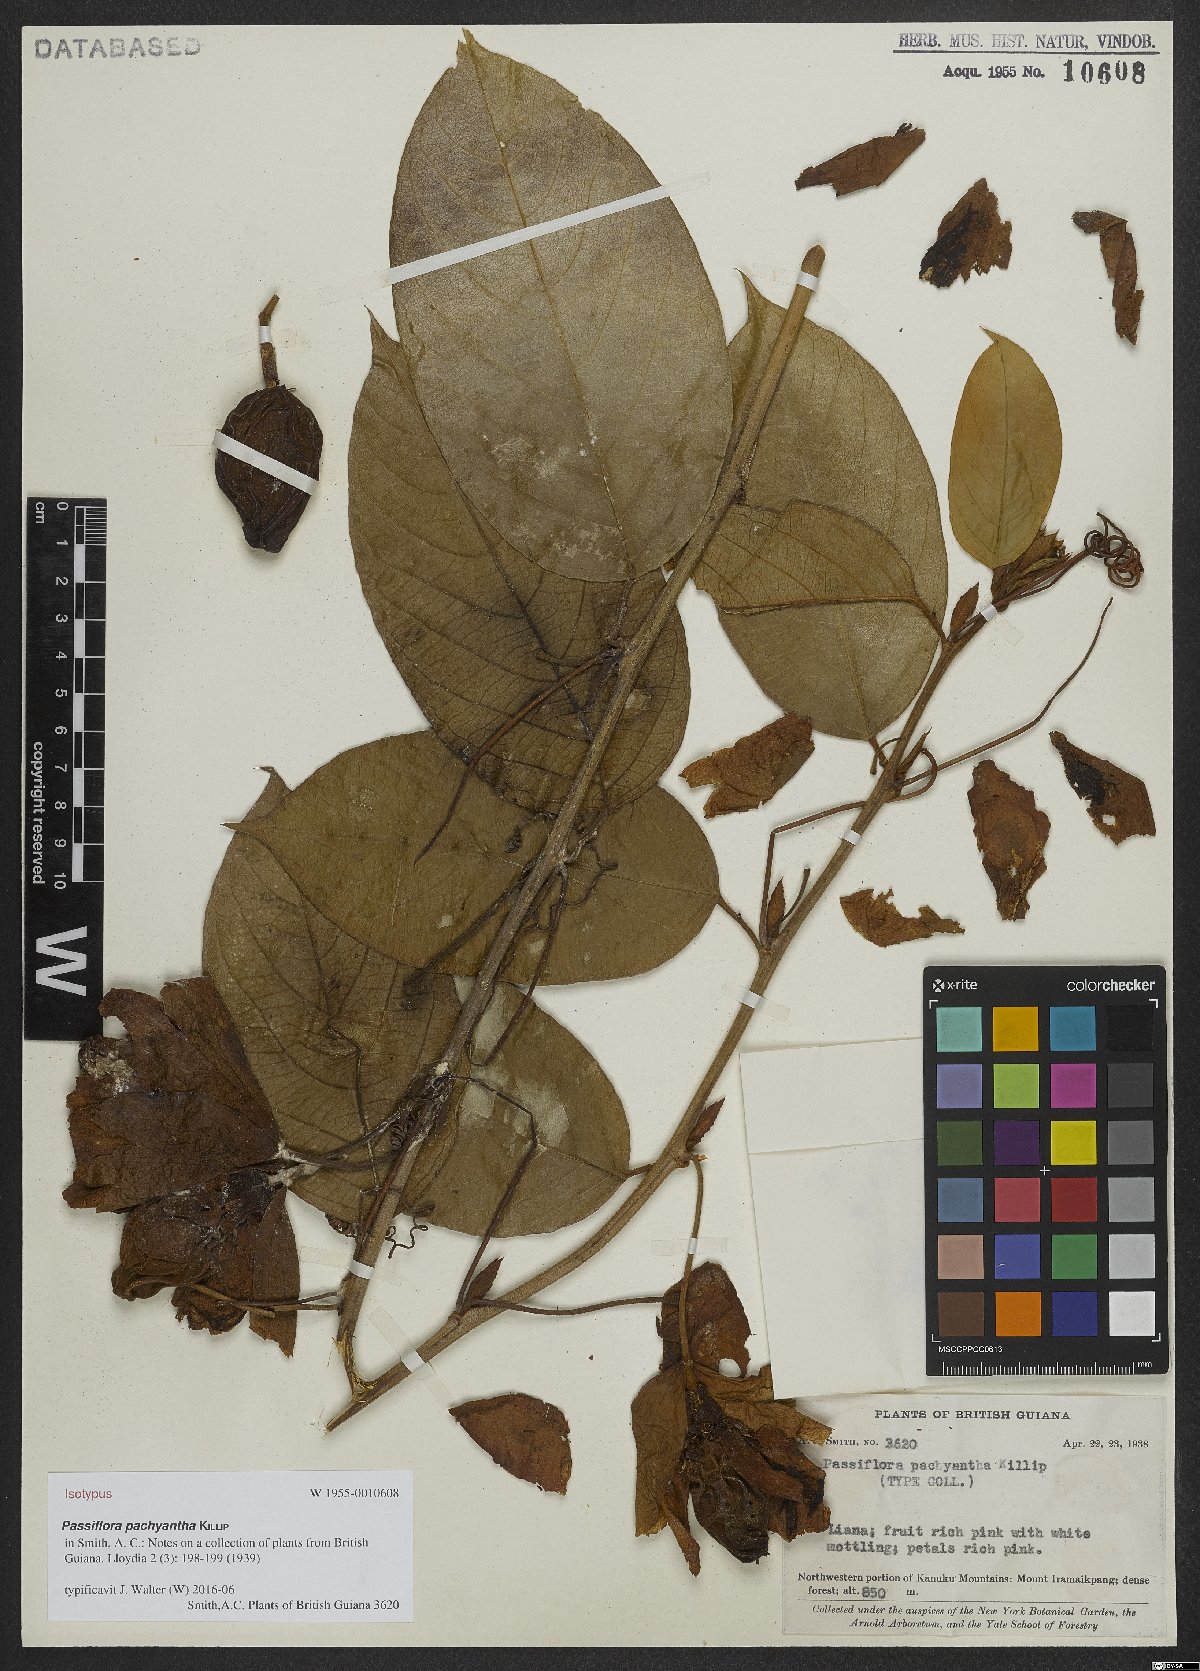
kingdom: Plantae
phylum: Tracheophyta
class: Magnoliopsida
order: Malpighiales
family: Passifloraceae
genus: Passiflora
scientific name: Passiflora pachyantha
